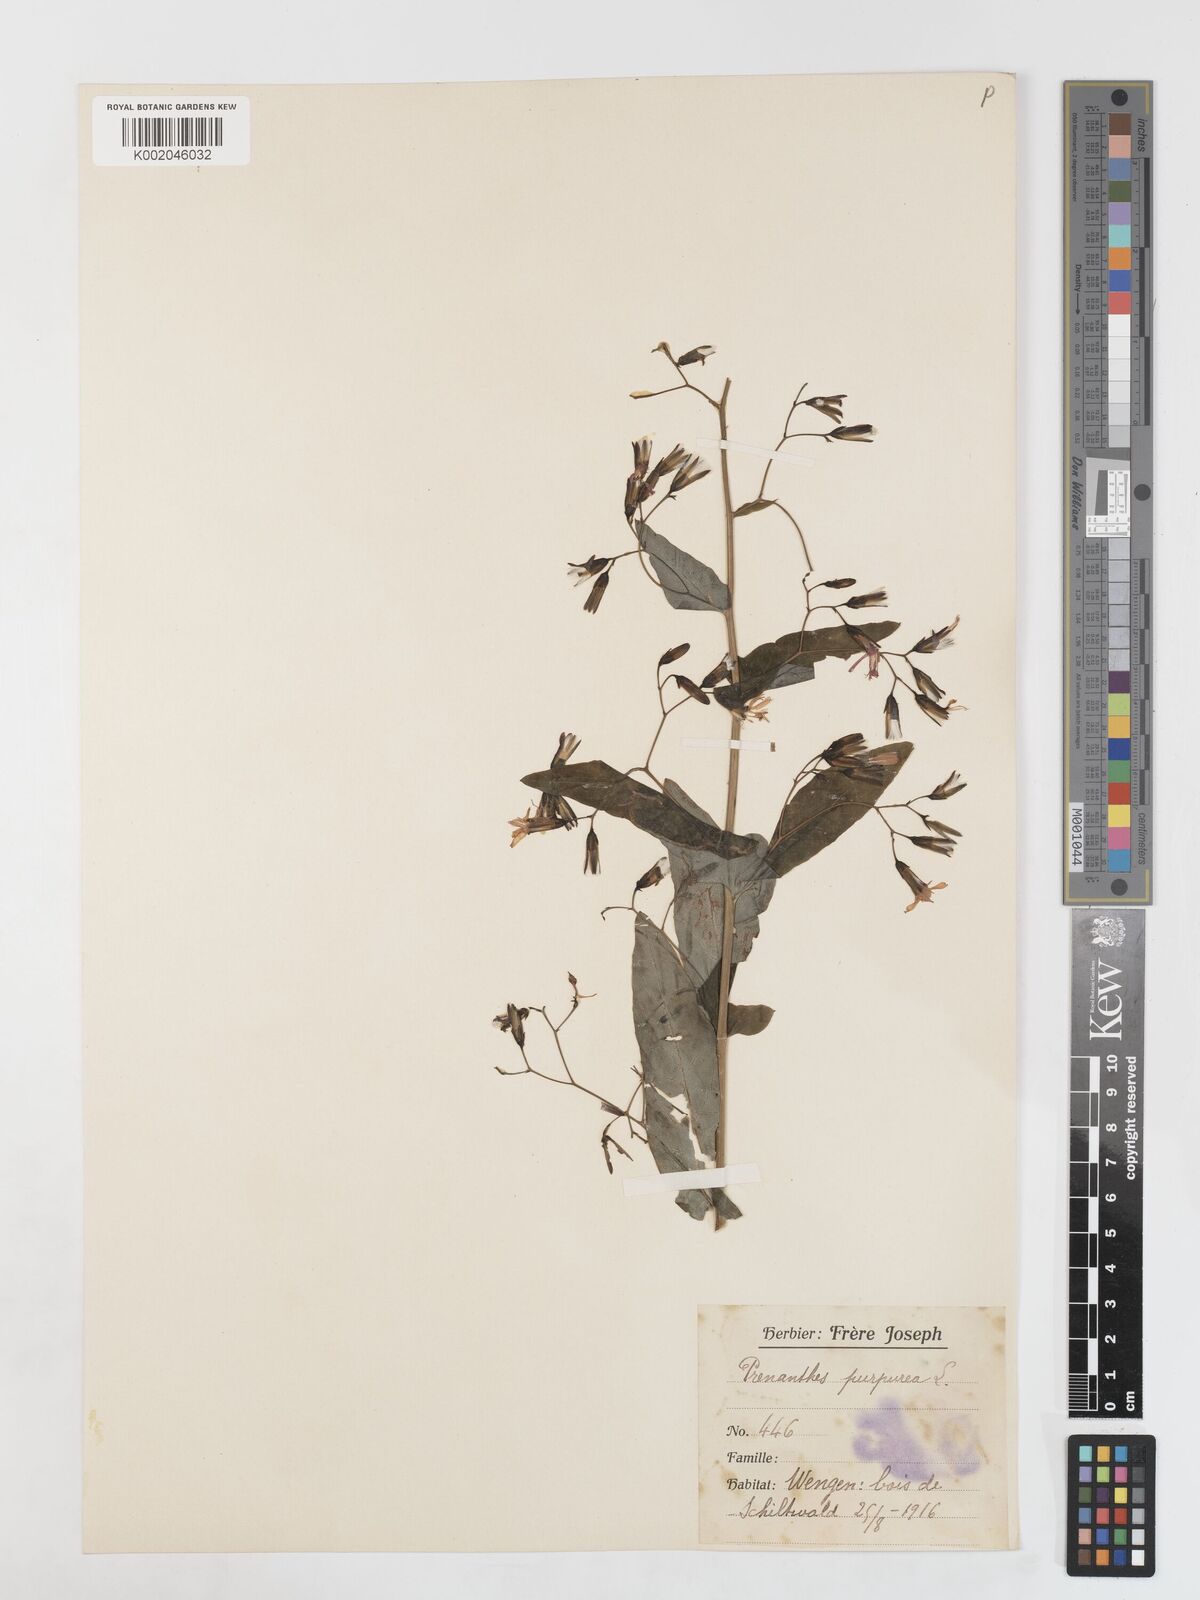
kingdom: Plantae
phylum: Tracheophyta
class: Magnoliopsida
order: Asterales
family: Asteraceae
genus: Prenanthes
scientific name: Prenanthes purpurea
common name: Purple lettuce
